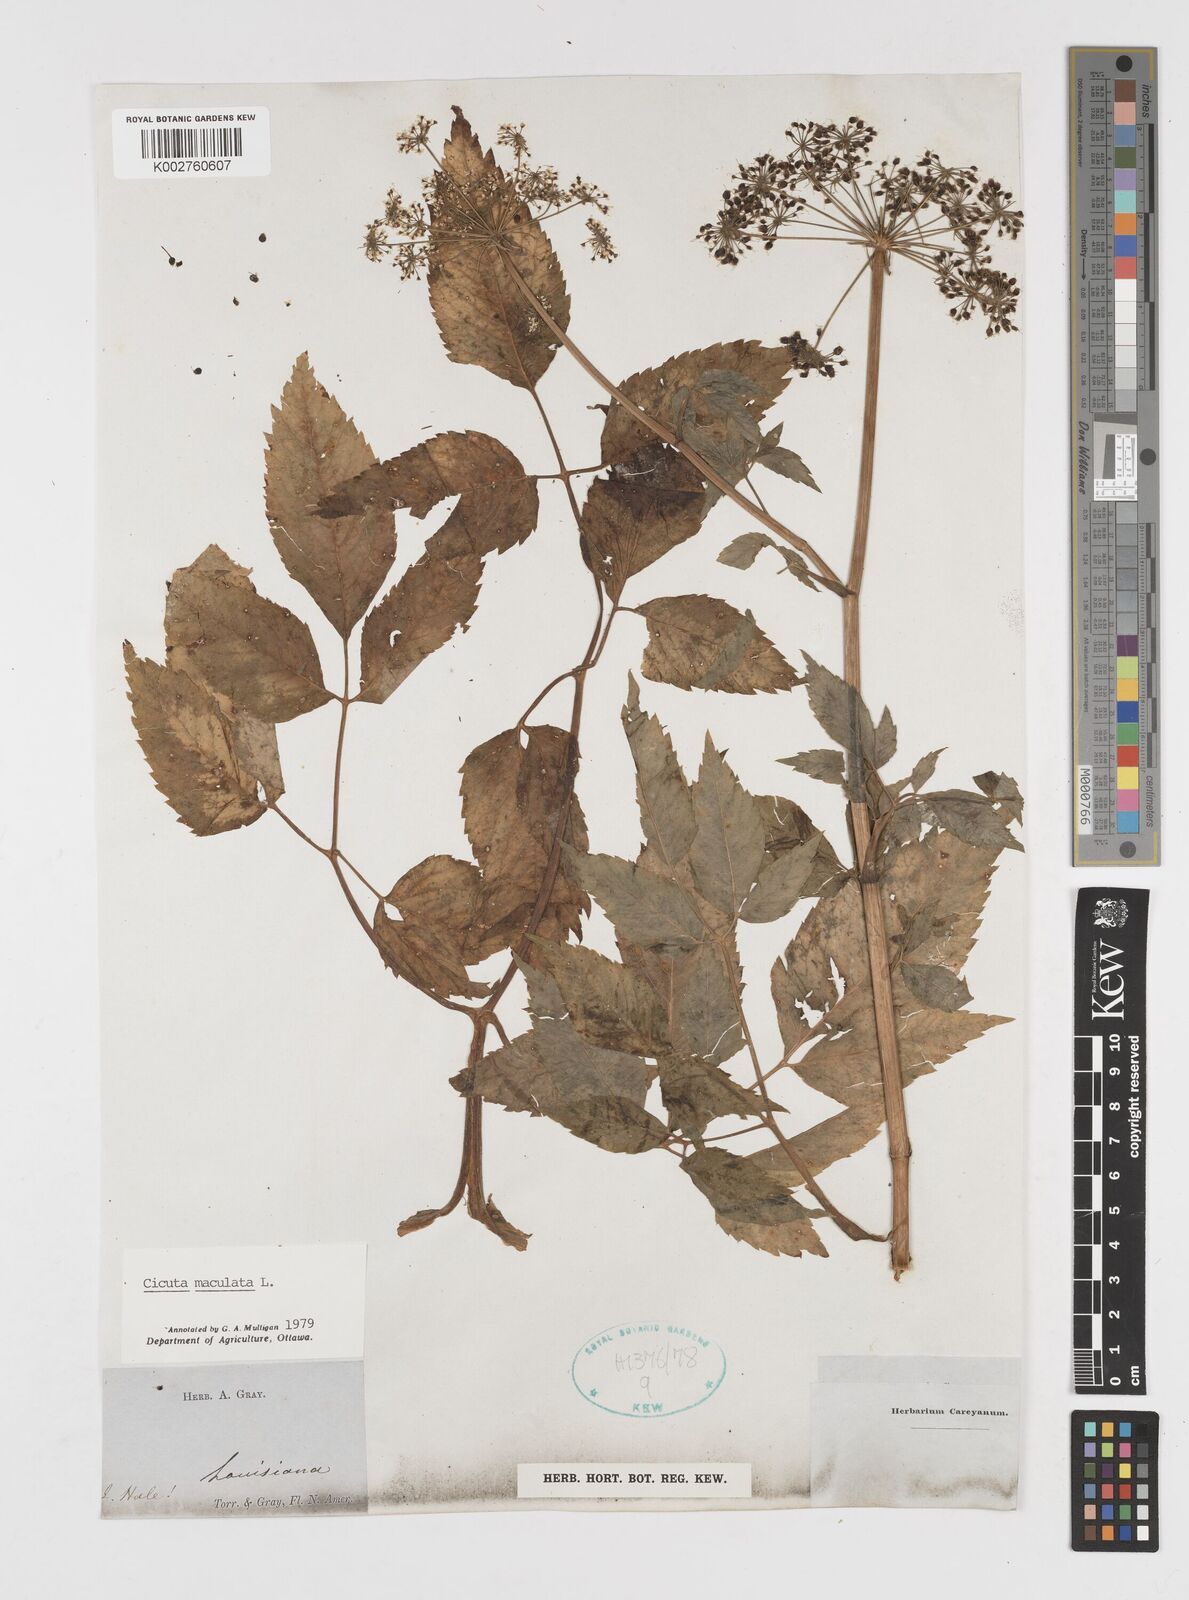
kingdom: Plantae
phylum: Tracheophyta
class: Magnoliopsida
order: Apiales
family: Apiaceae
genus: Cicuta
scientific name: Cicuta maculata
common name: Spotted cowbane
